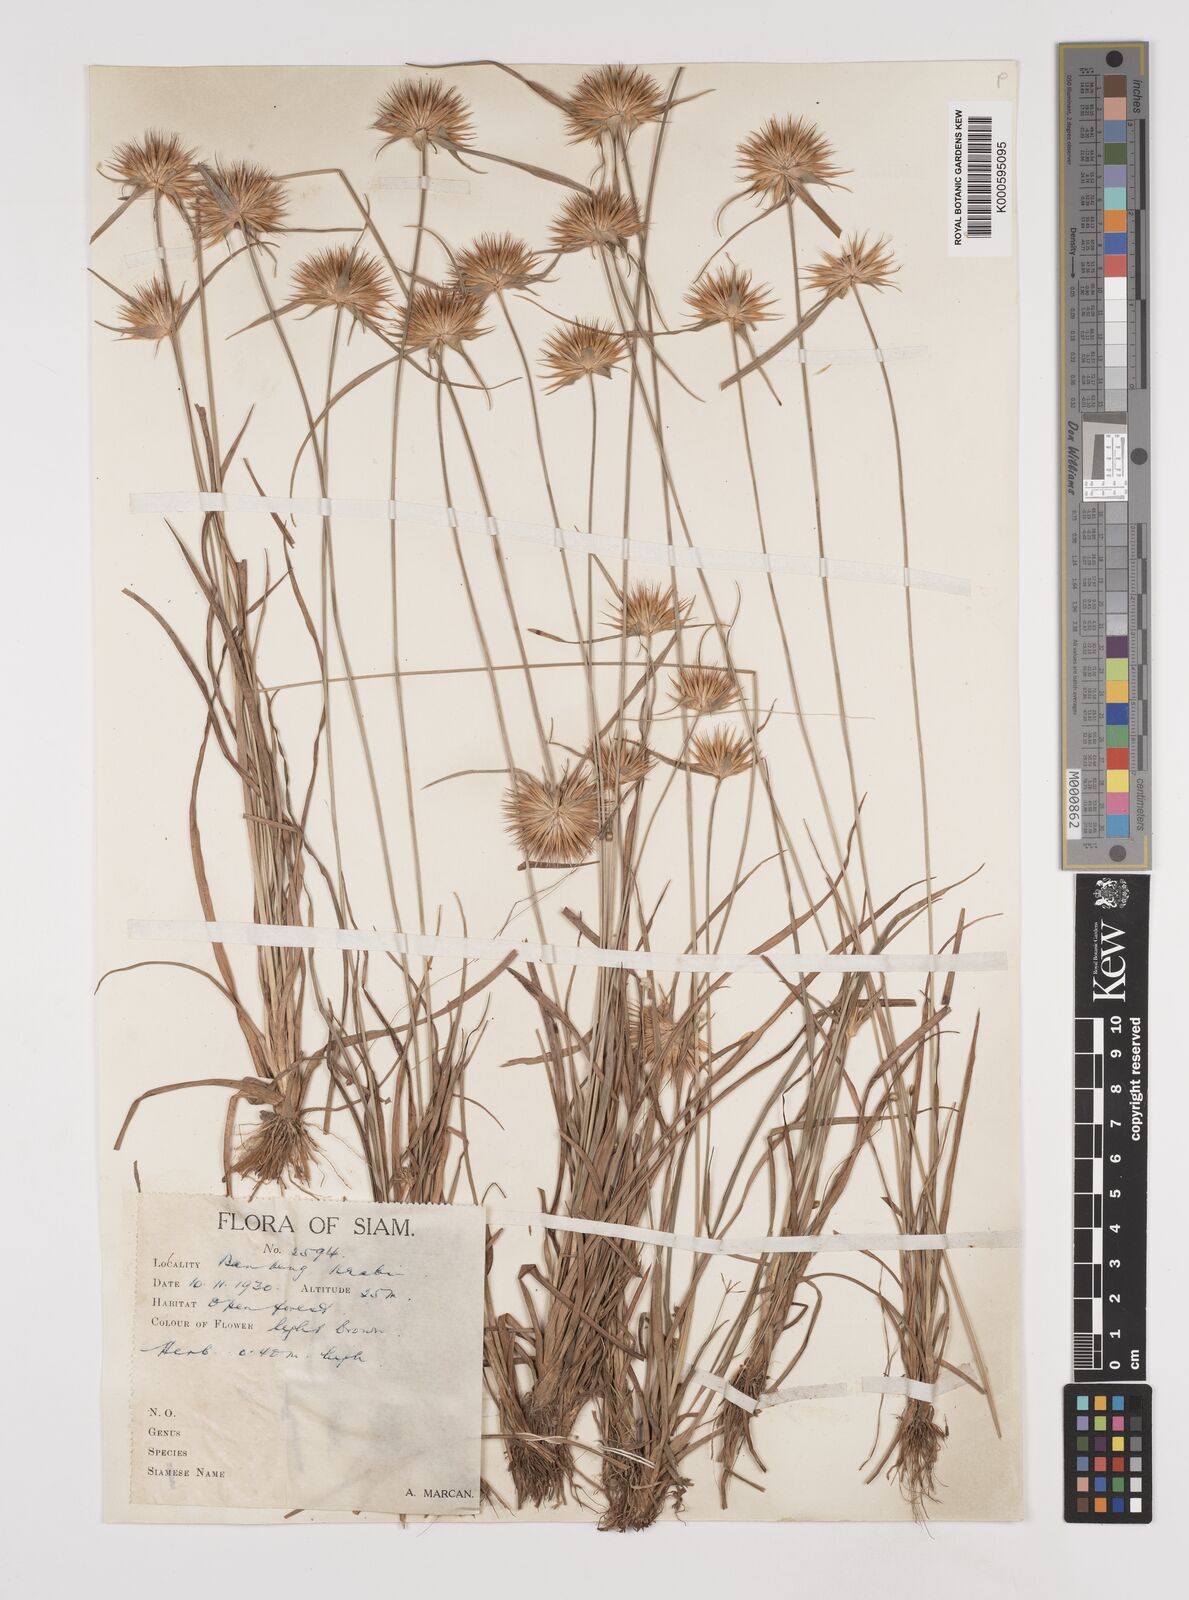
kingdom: Plantae
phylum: Tracheophyta
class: Liliopsida
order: Poales
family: Cyperaceae
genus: Rhynchospora
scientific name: Rhynchospora longisetis
